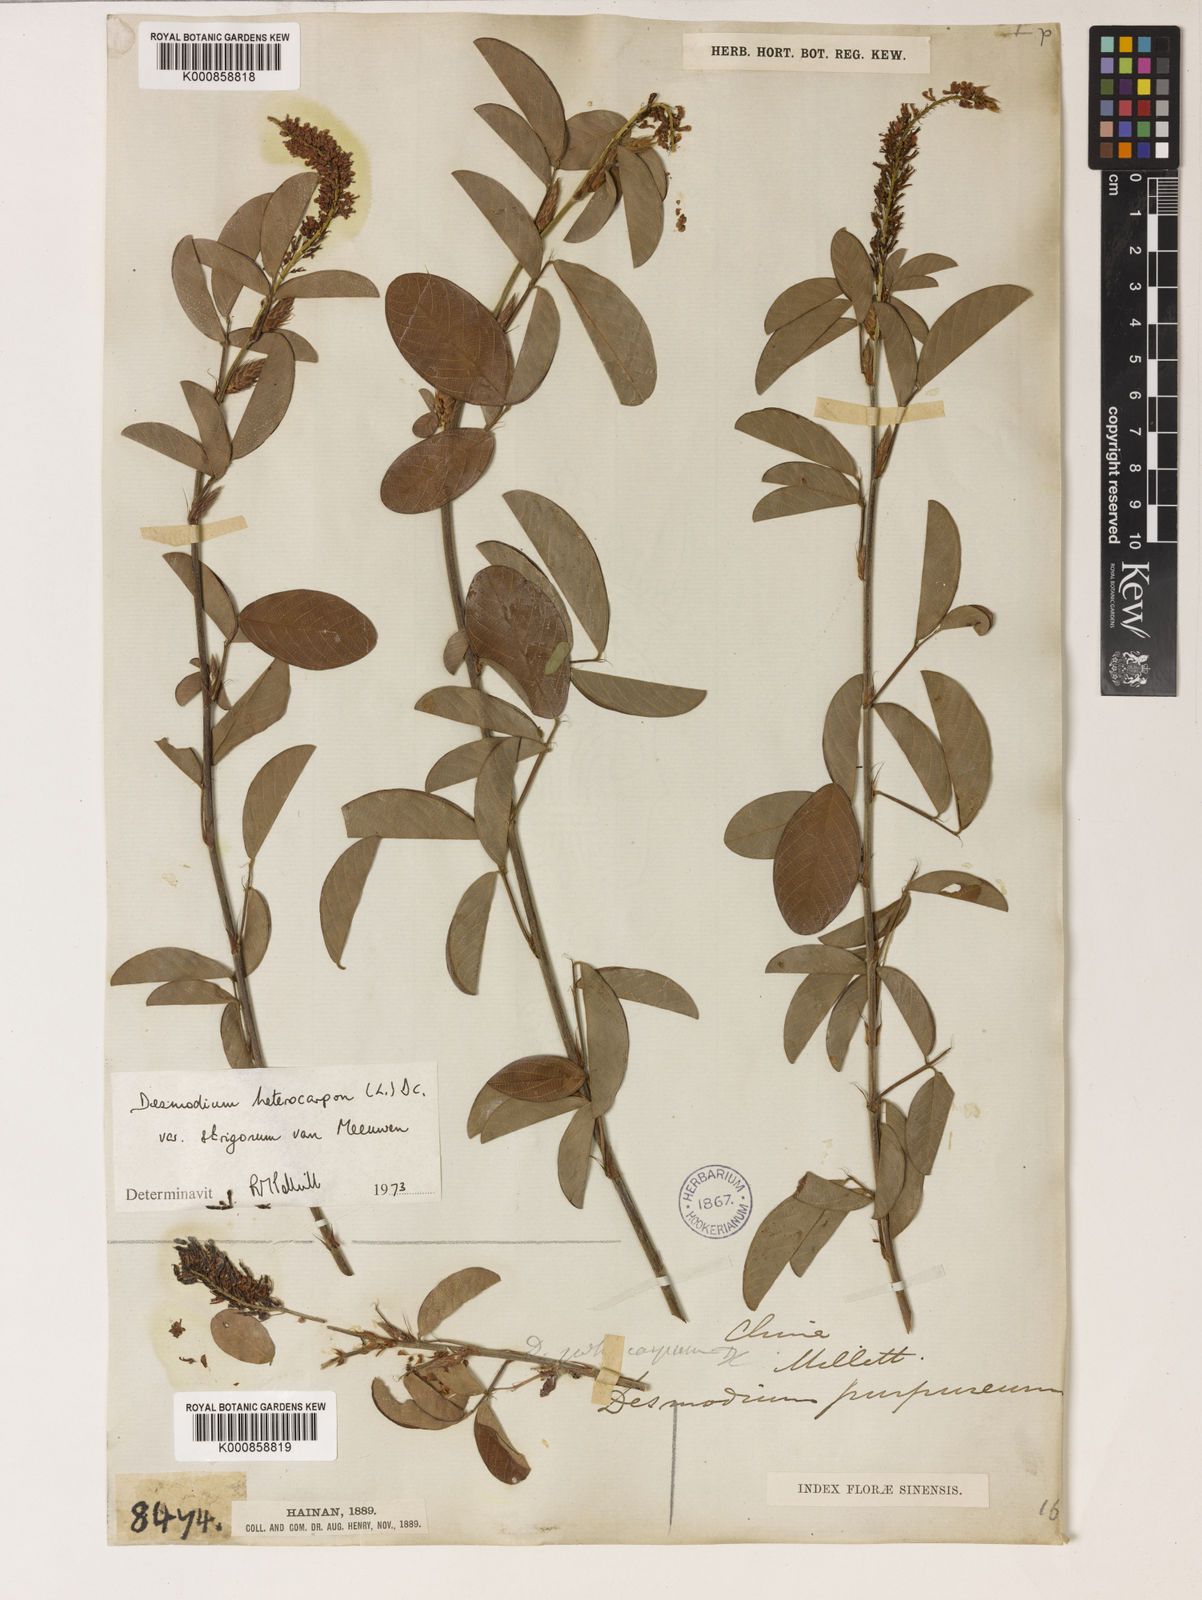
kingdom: Plantae
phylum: Tracheophyta
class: Magnoliopsida
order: Fabales
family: Fabaceae
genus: Grona
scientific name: Grona heterocarpos
